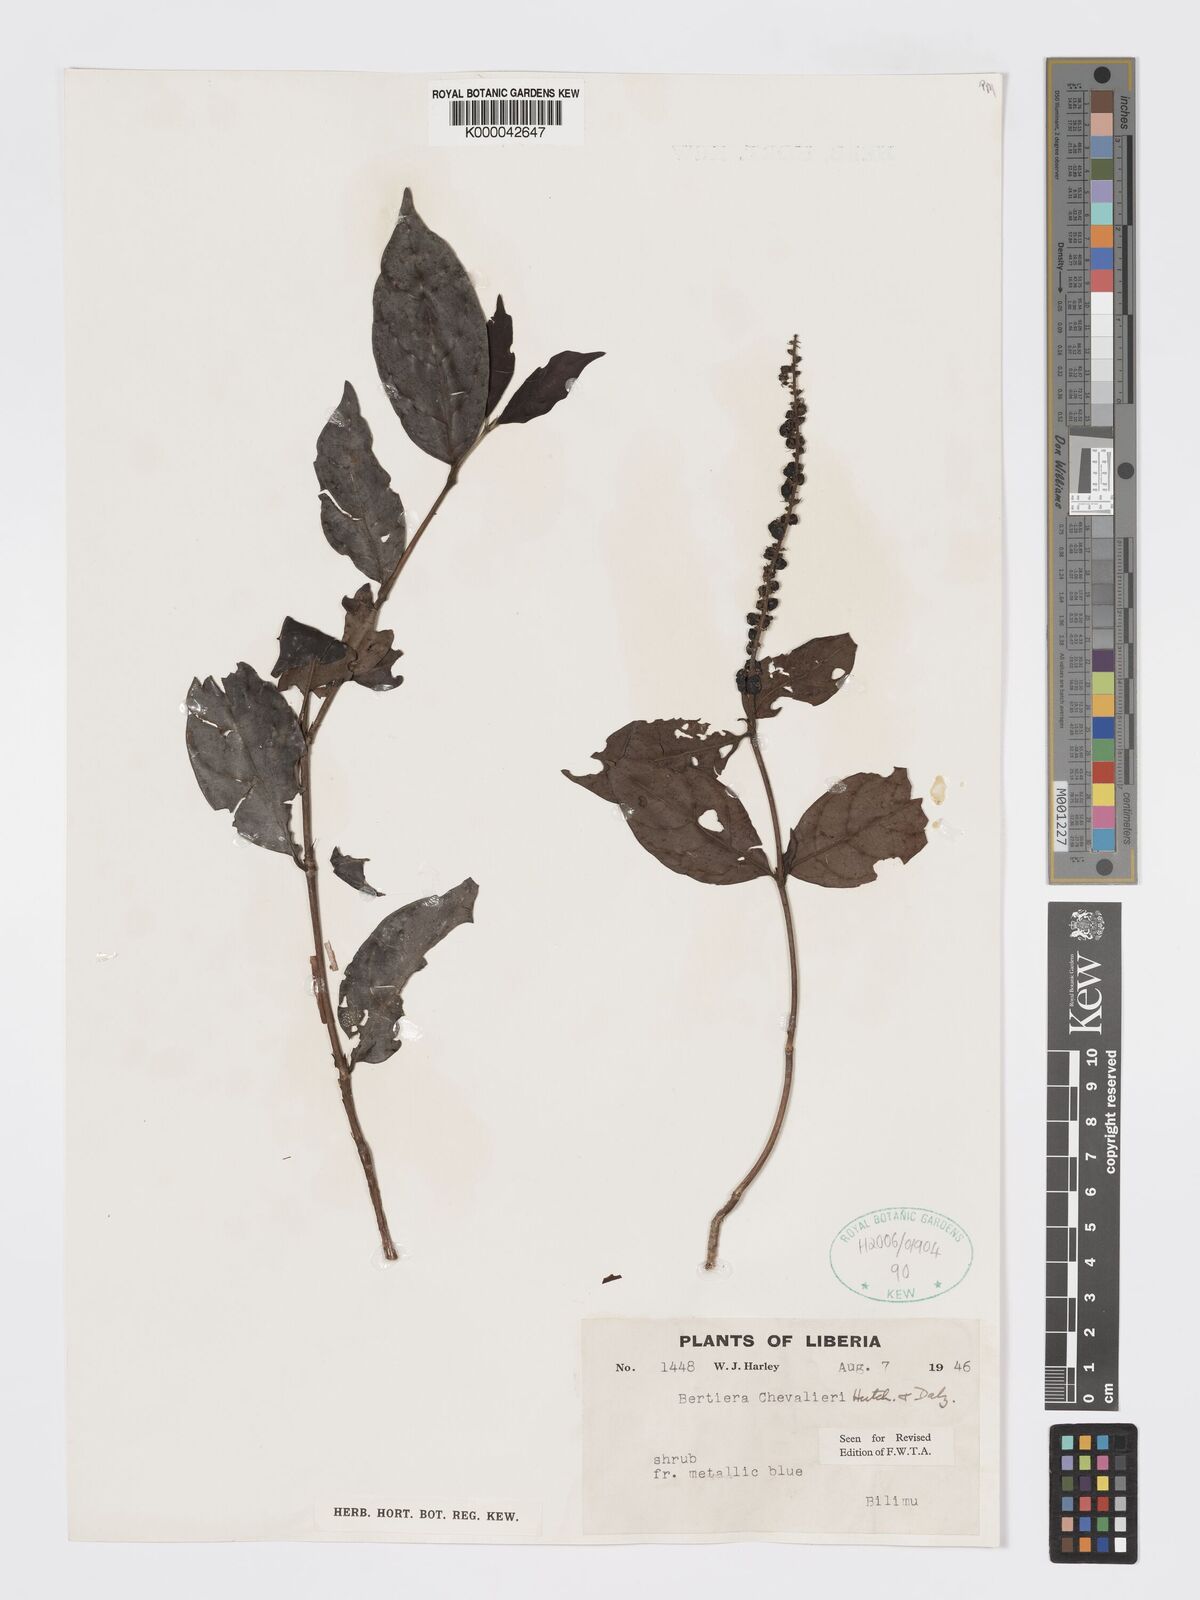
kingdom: Plantae
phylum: Tracheophyta
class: Magnoliopsida
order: Gentianales
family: Rubiaceae
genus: Bertiera
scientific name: Bertiera chevalieri
